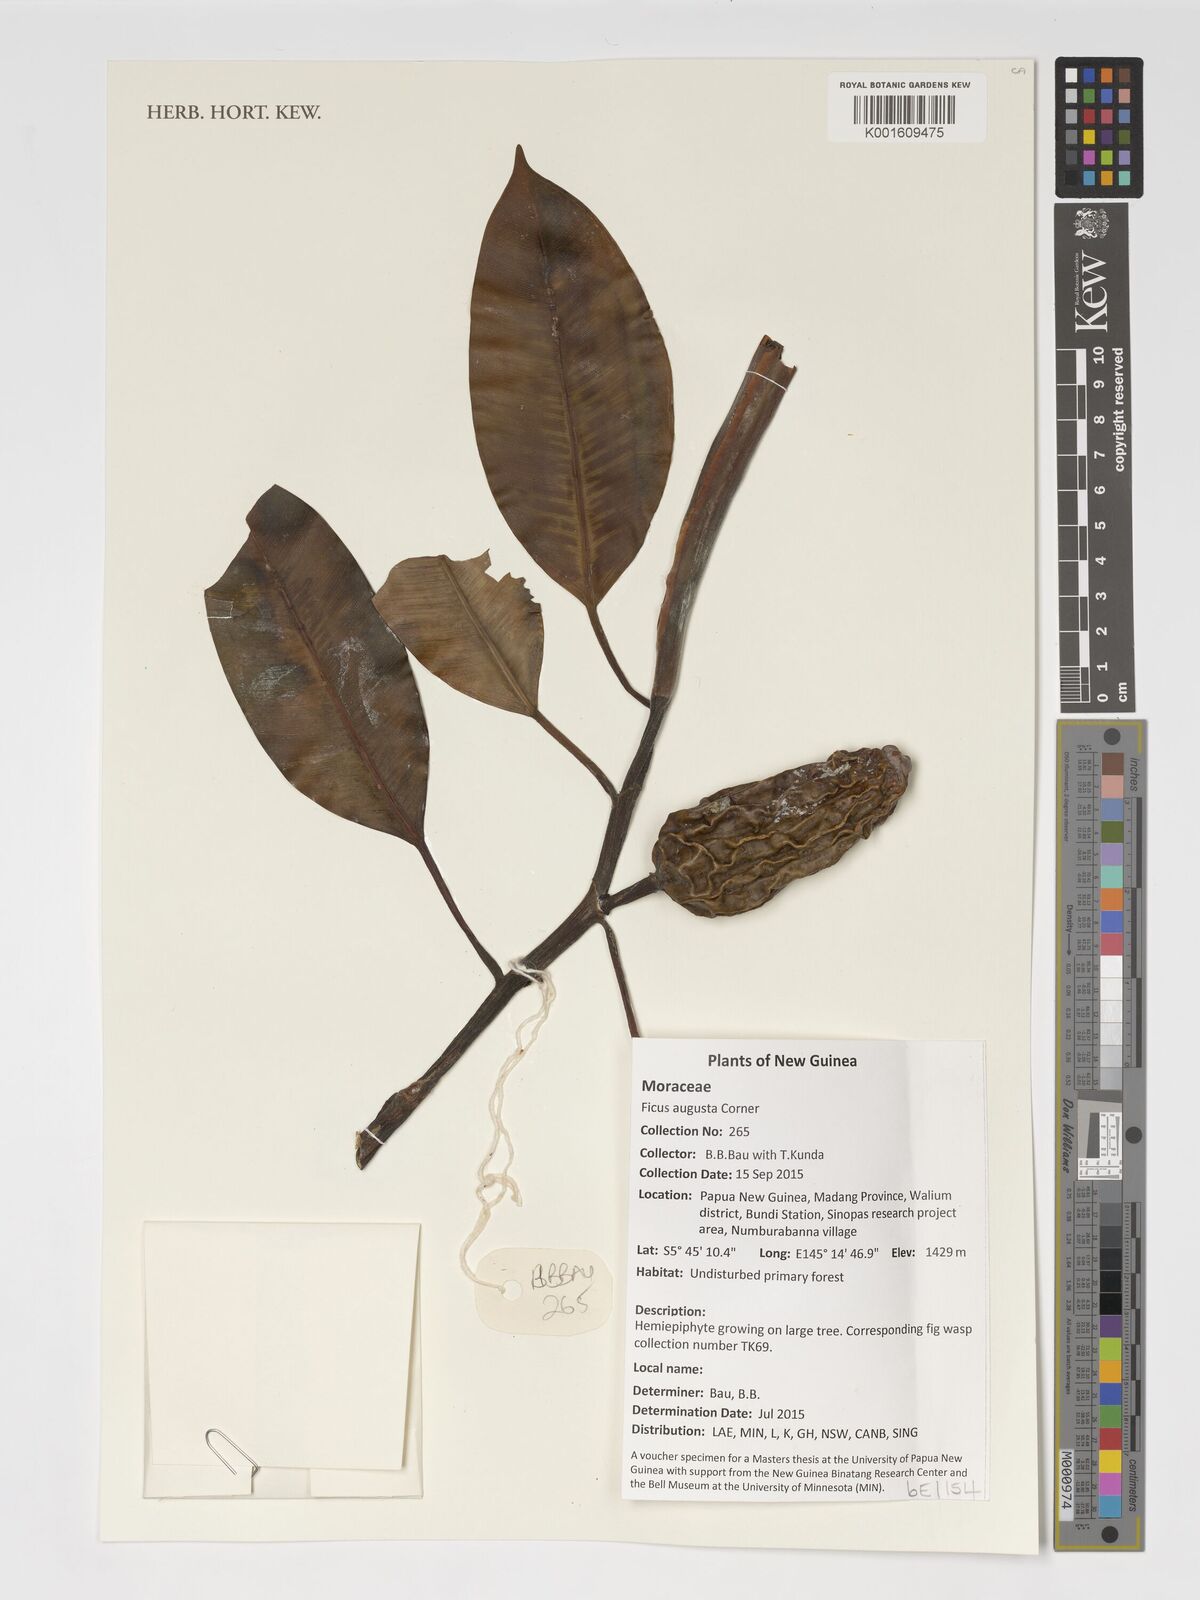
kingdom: Plantae
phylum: Tracheophyta
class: Magnoliopsida
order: Rosales
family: Moraceae
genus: Ficus
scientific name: Ficus hesperidiiformis
